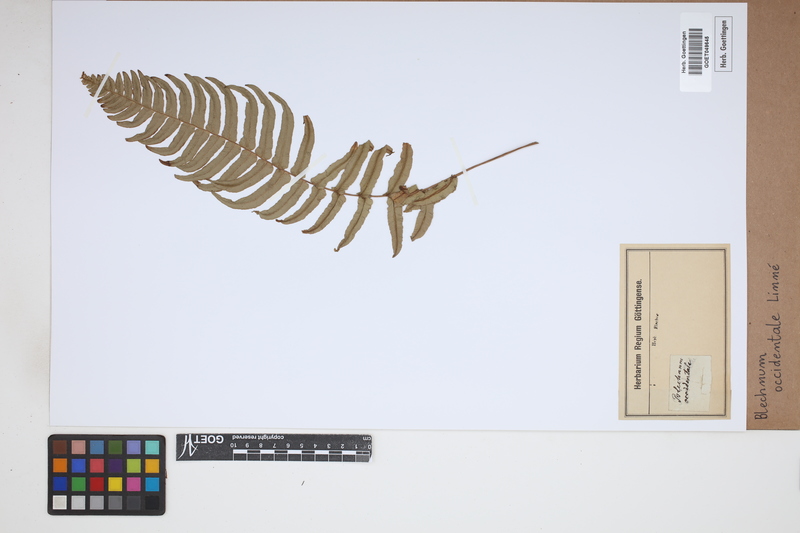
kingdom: Plantae
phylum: Tracheophyta
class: Polypodiopsida
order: Polypodiales
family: Blechnaceae
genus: Blechnum
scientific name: Blechnum occidentale
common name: Hammock fern
